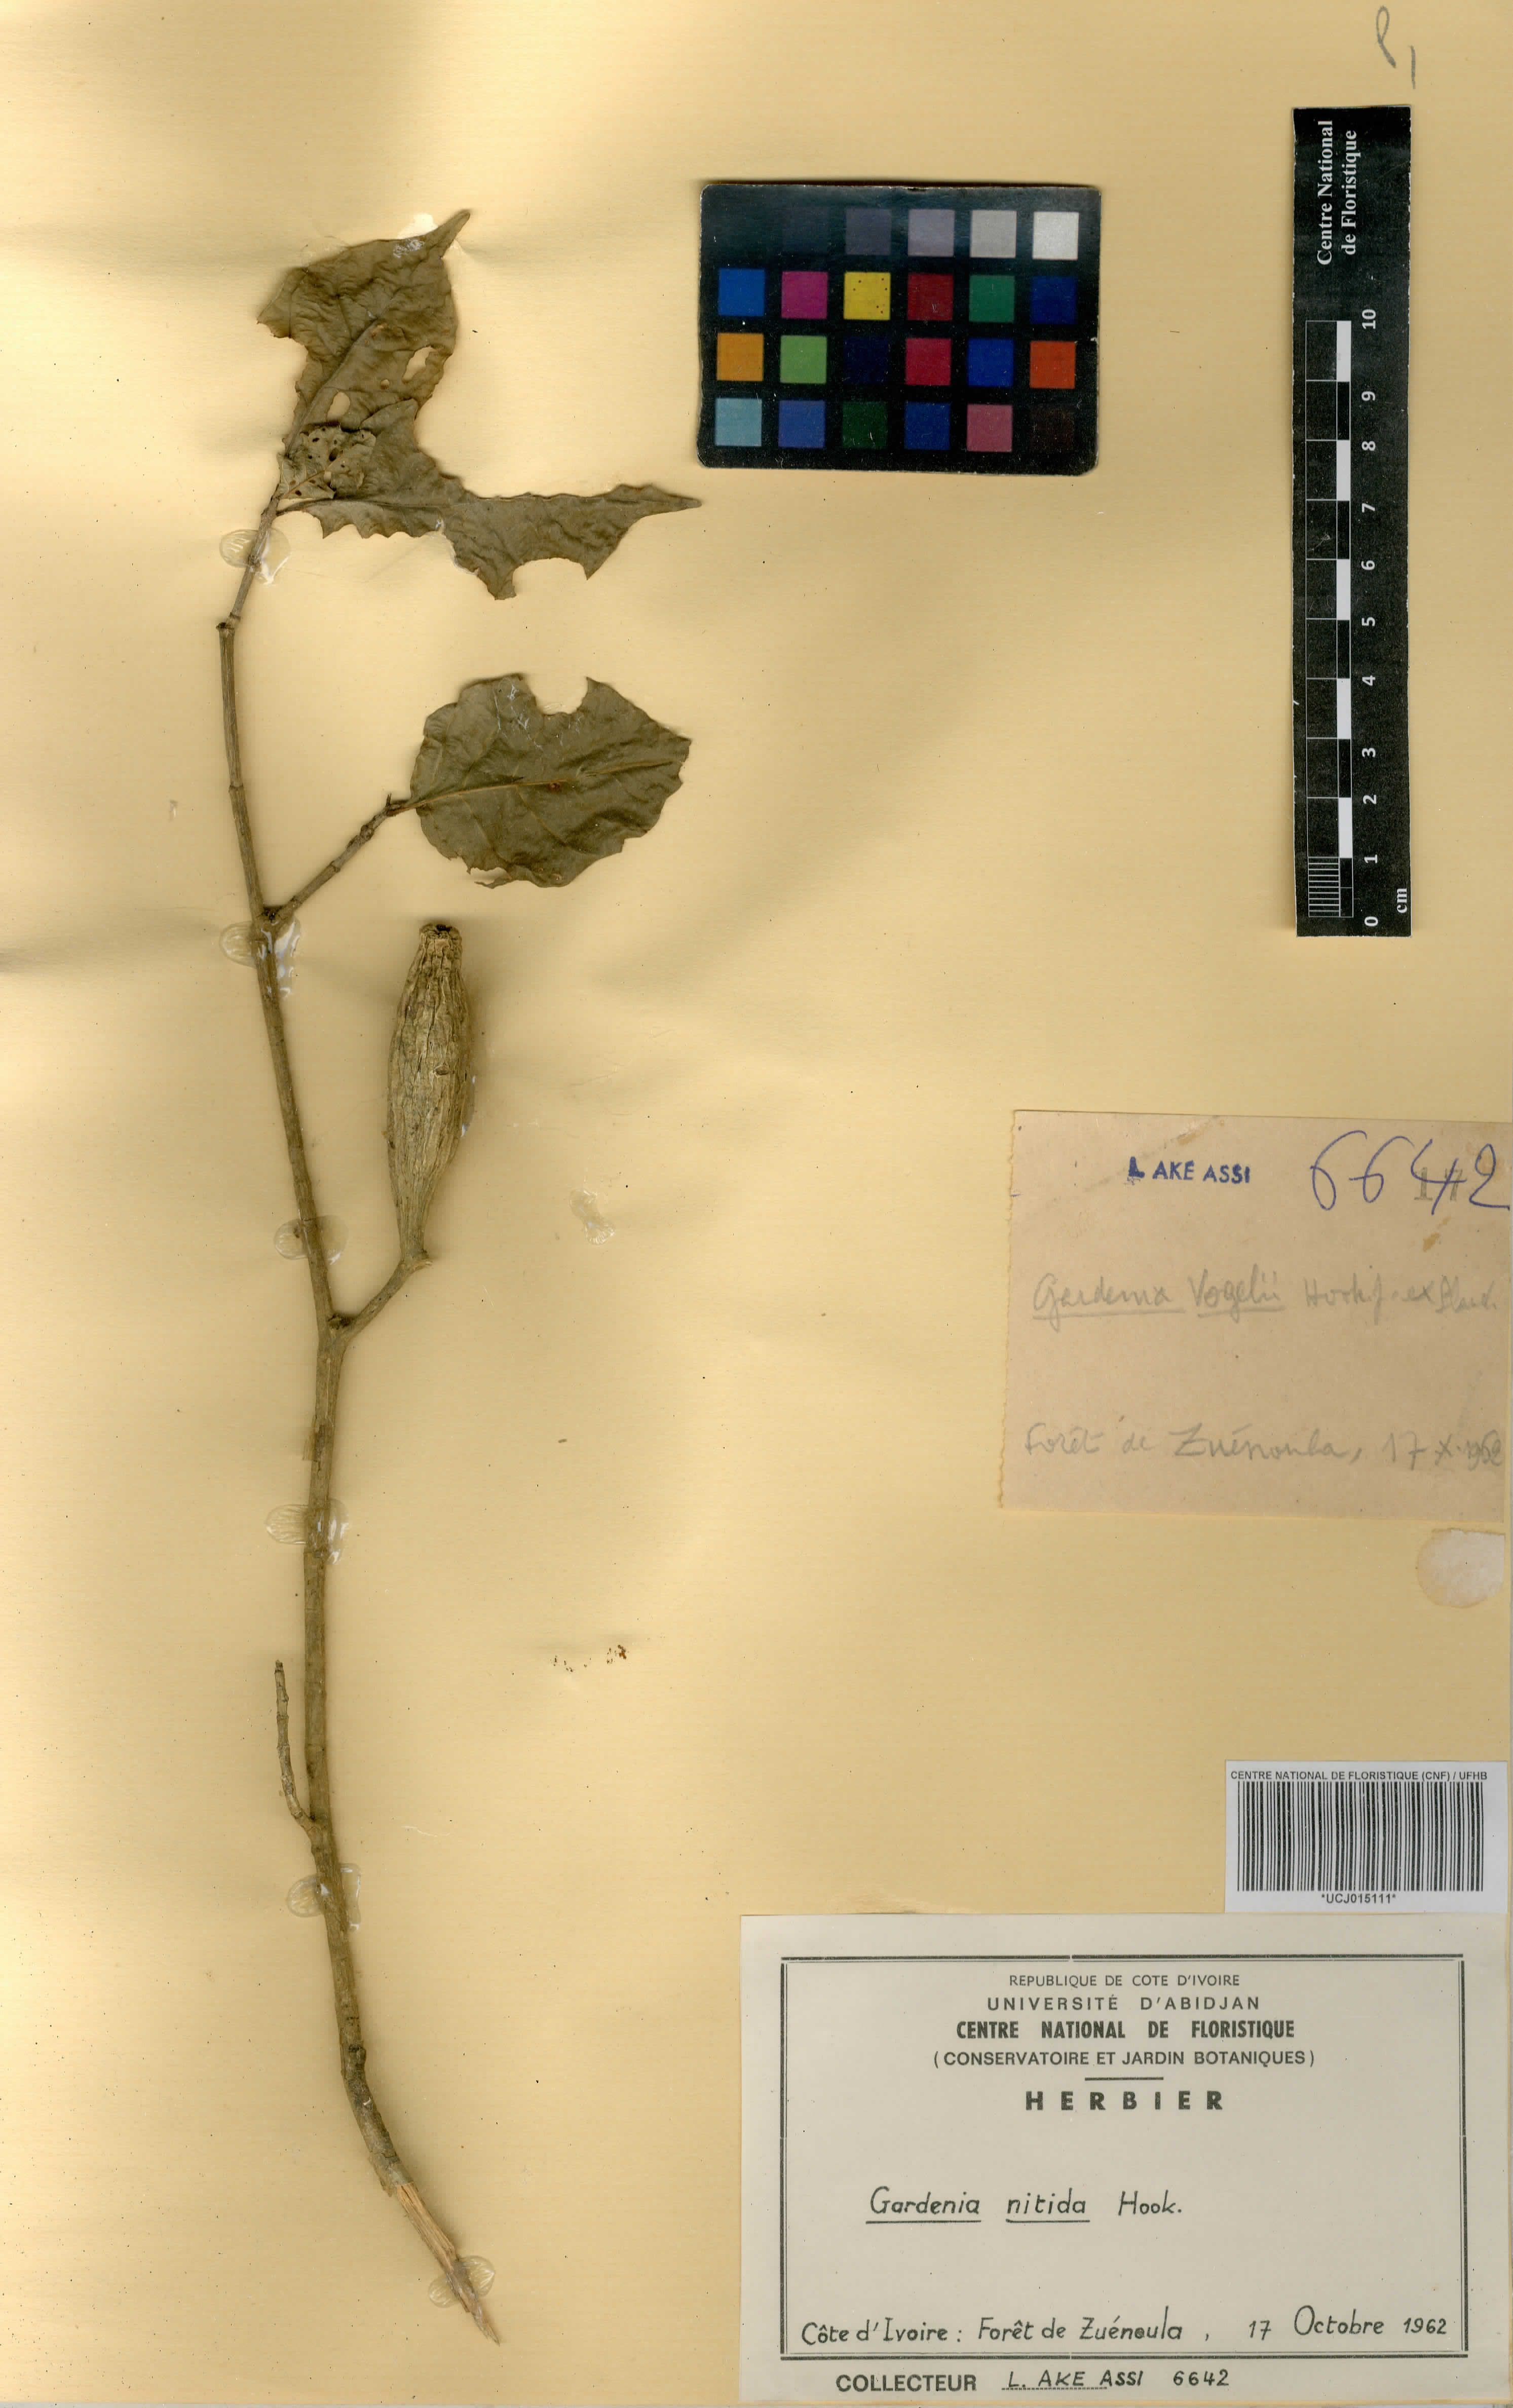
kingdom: Plantae
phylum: Tracheophyta
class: Magnoliopsida
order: Gentianales
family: Rubiaceae
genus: Gardenia
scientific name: Gardenia nitida
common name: Glossy-leaved gardenia
